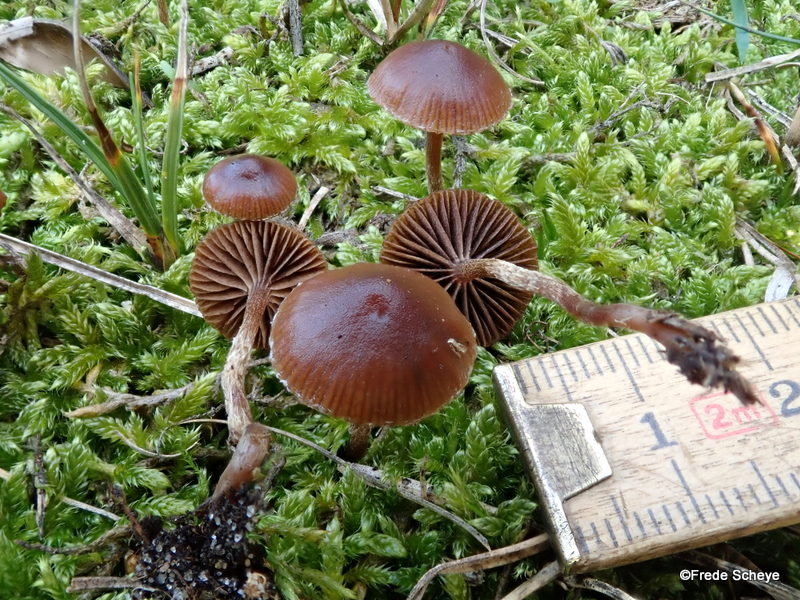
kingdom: Fungi
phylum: Basidiomycota
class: Agaricomycetes
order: Agaricales
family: Strophariaceae
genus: Deconica
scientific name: Deconica montana
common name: rødbrun stråhat
